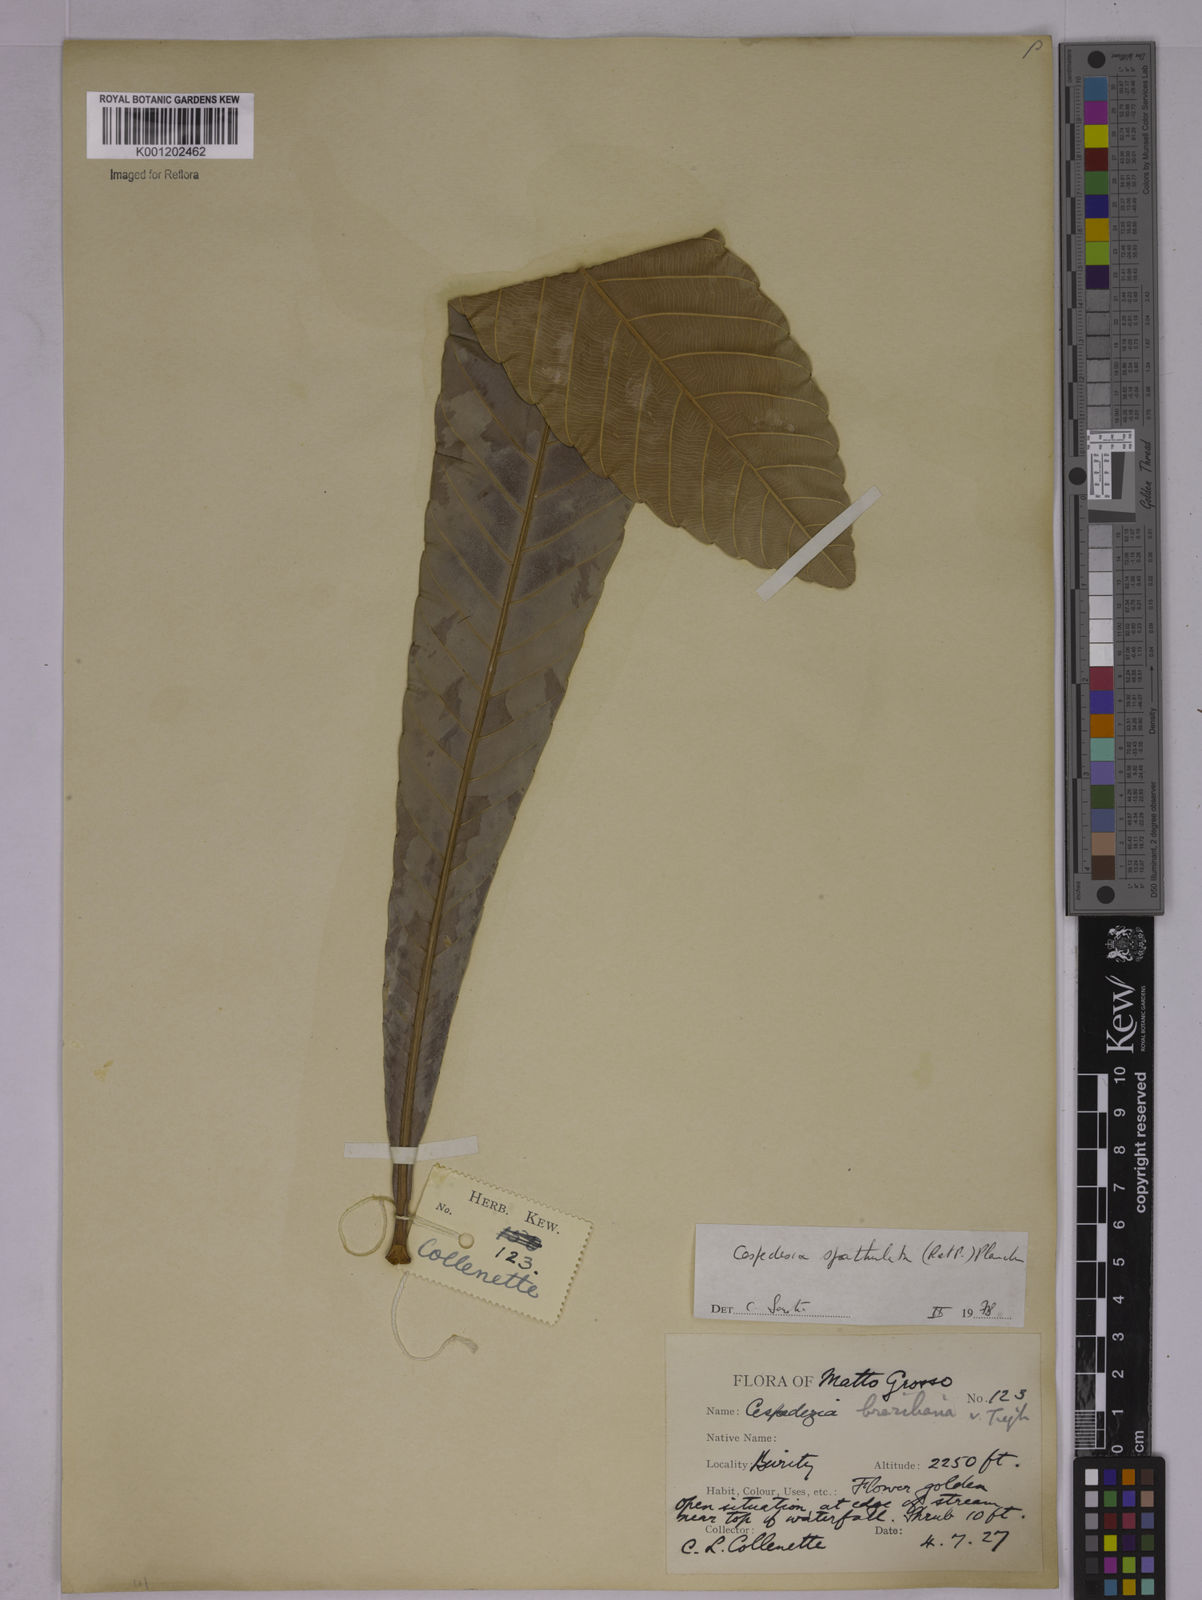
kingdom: Plantae
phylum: Tracheophyta
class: Magnoliopsida
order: Malpighiales
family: Ochnaceae
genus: Cespedesia
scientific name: Cespedesia spathulata
